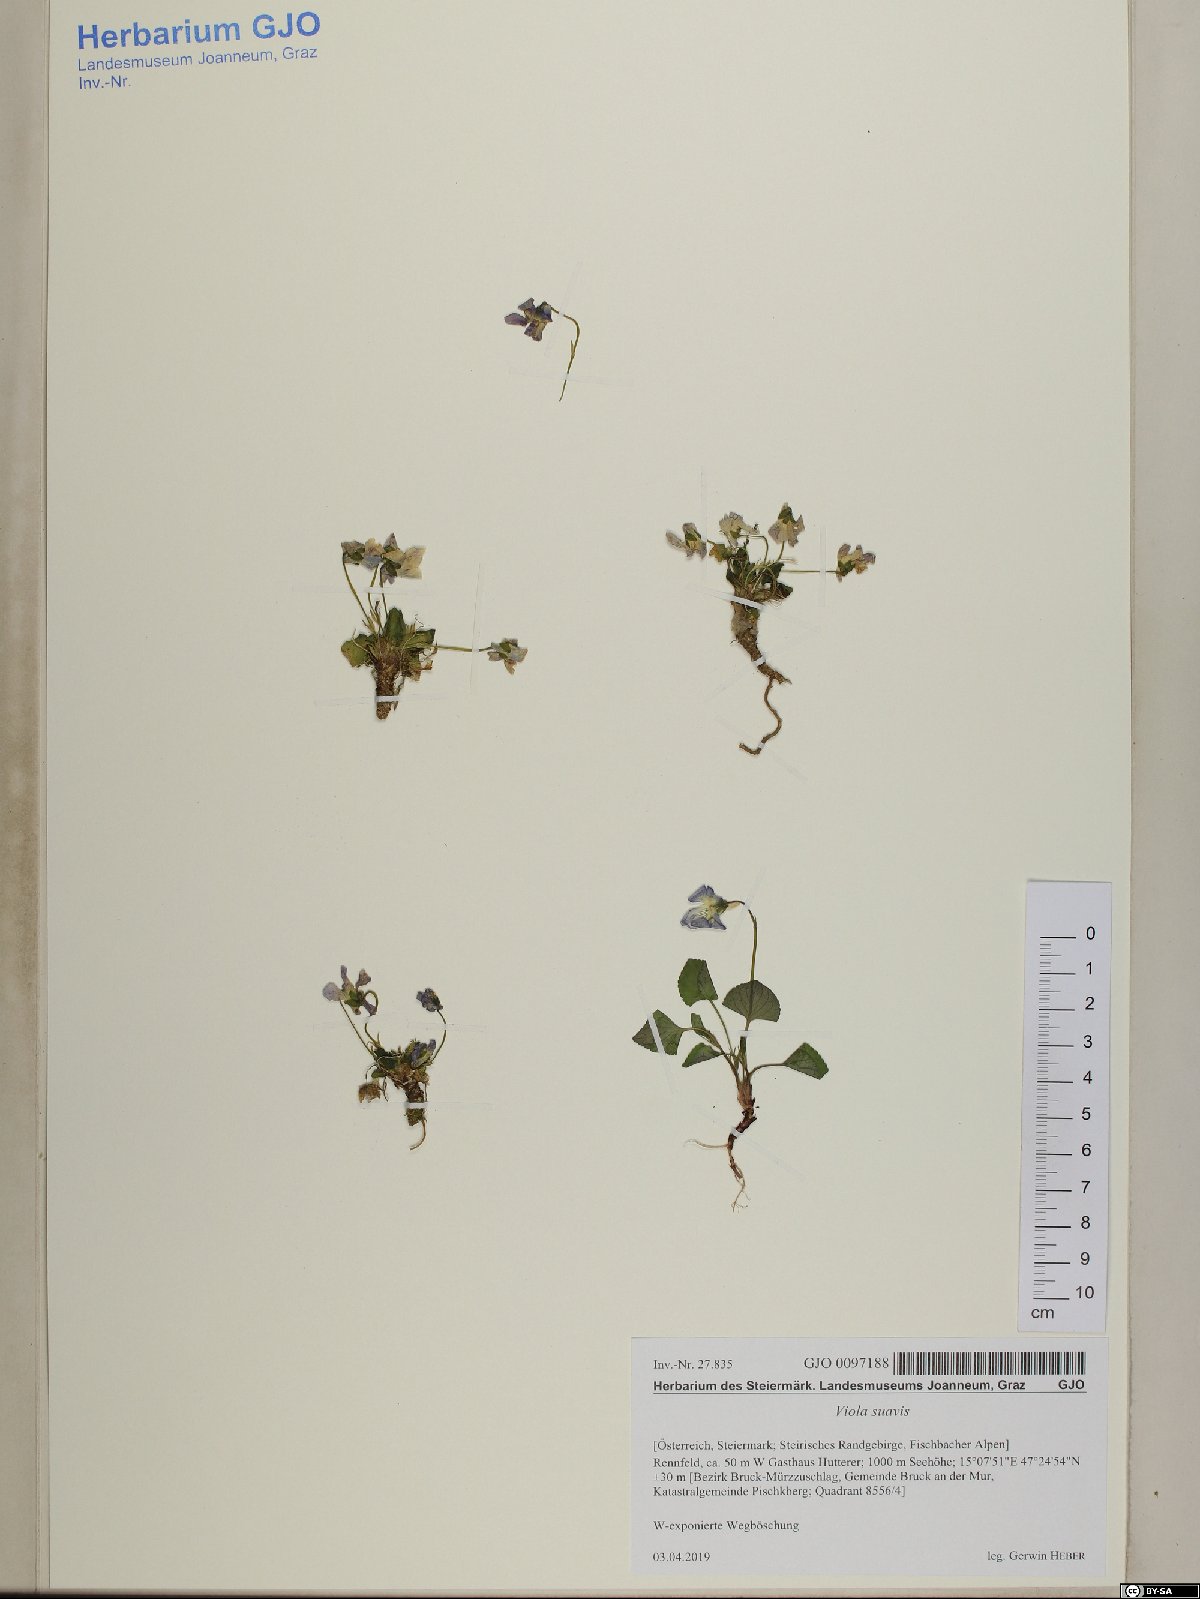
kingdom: Plantae
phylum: Tracheophyta
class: Magnoliopsida
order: Malpighiales
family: Violaceae
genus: Viola
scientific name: Viola suavis
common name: Russian violet
